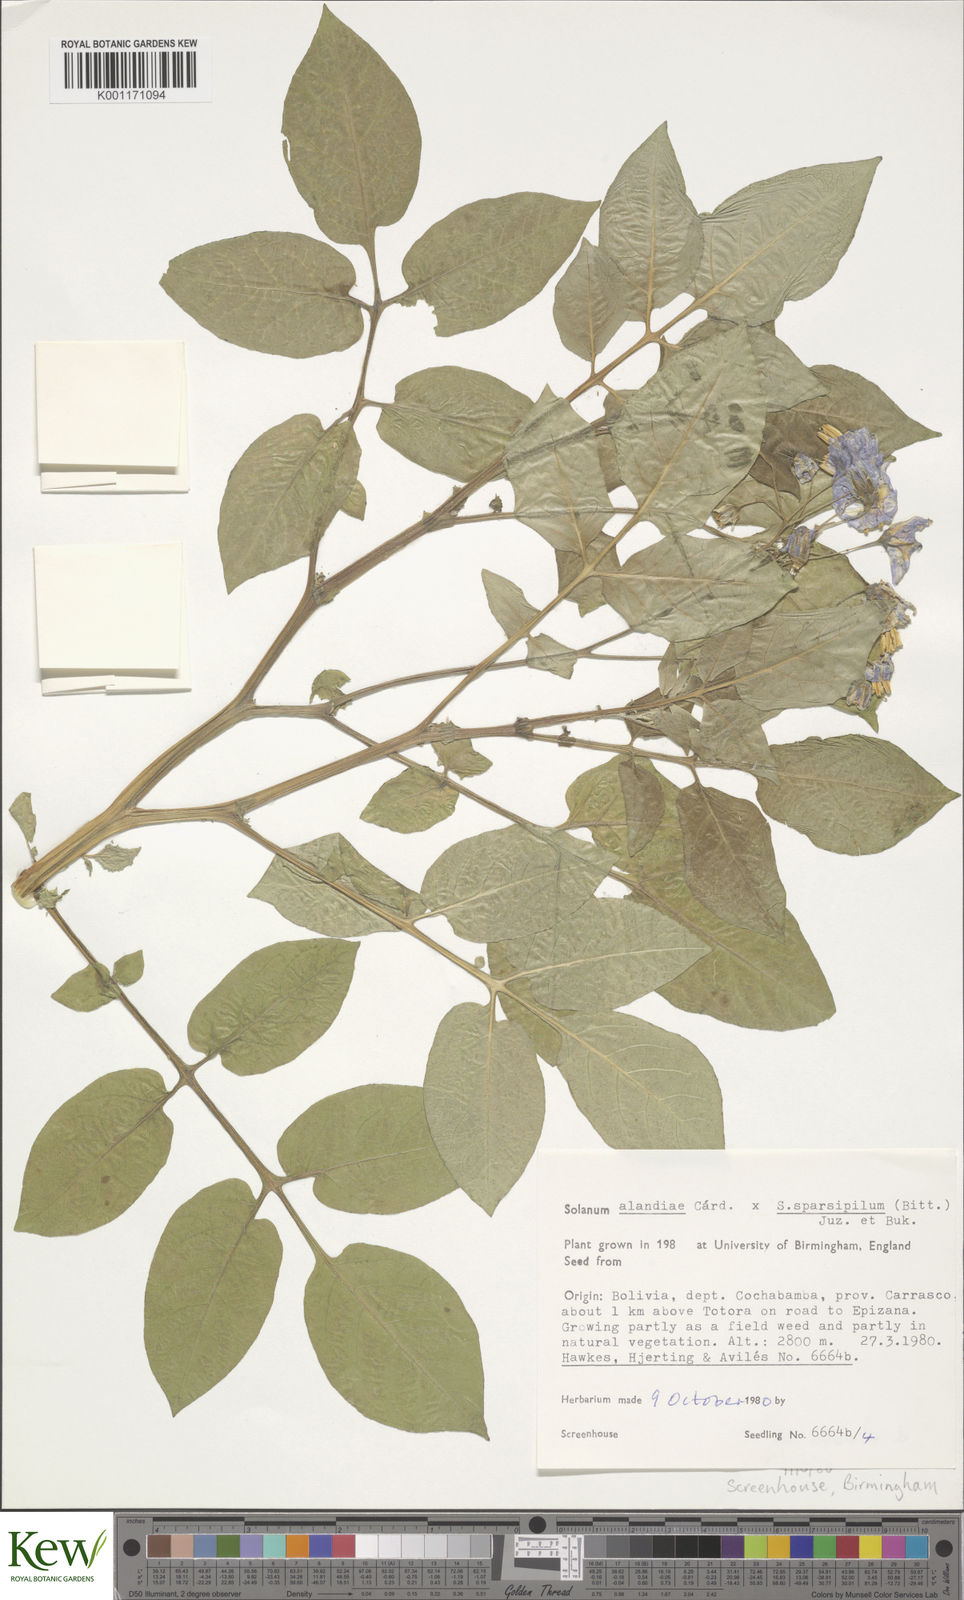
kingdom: Plantae
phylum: Tracheophyta
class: Magnoliopsida
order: Solanales
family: Solanaceae
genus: Solanum
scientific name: Solanum
